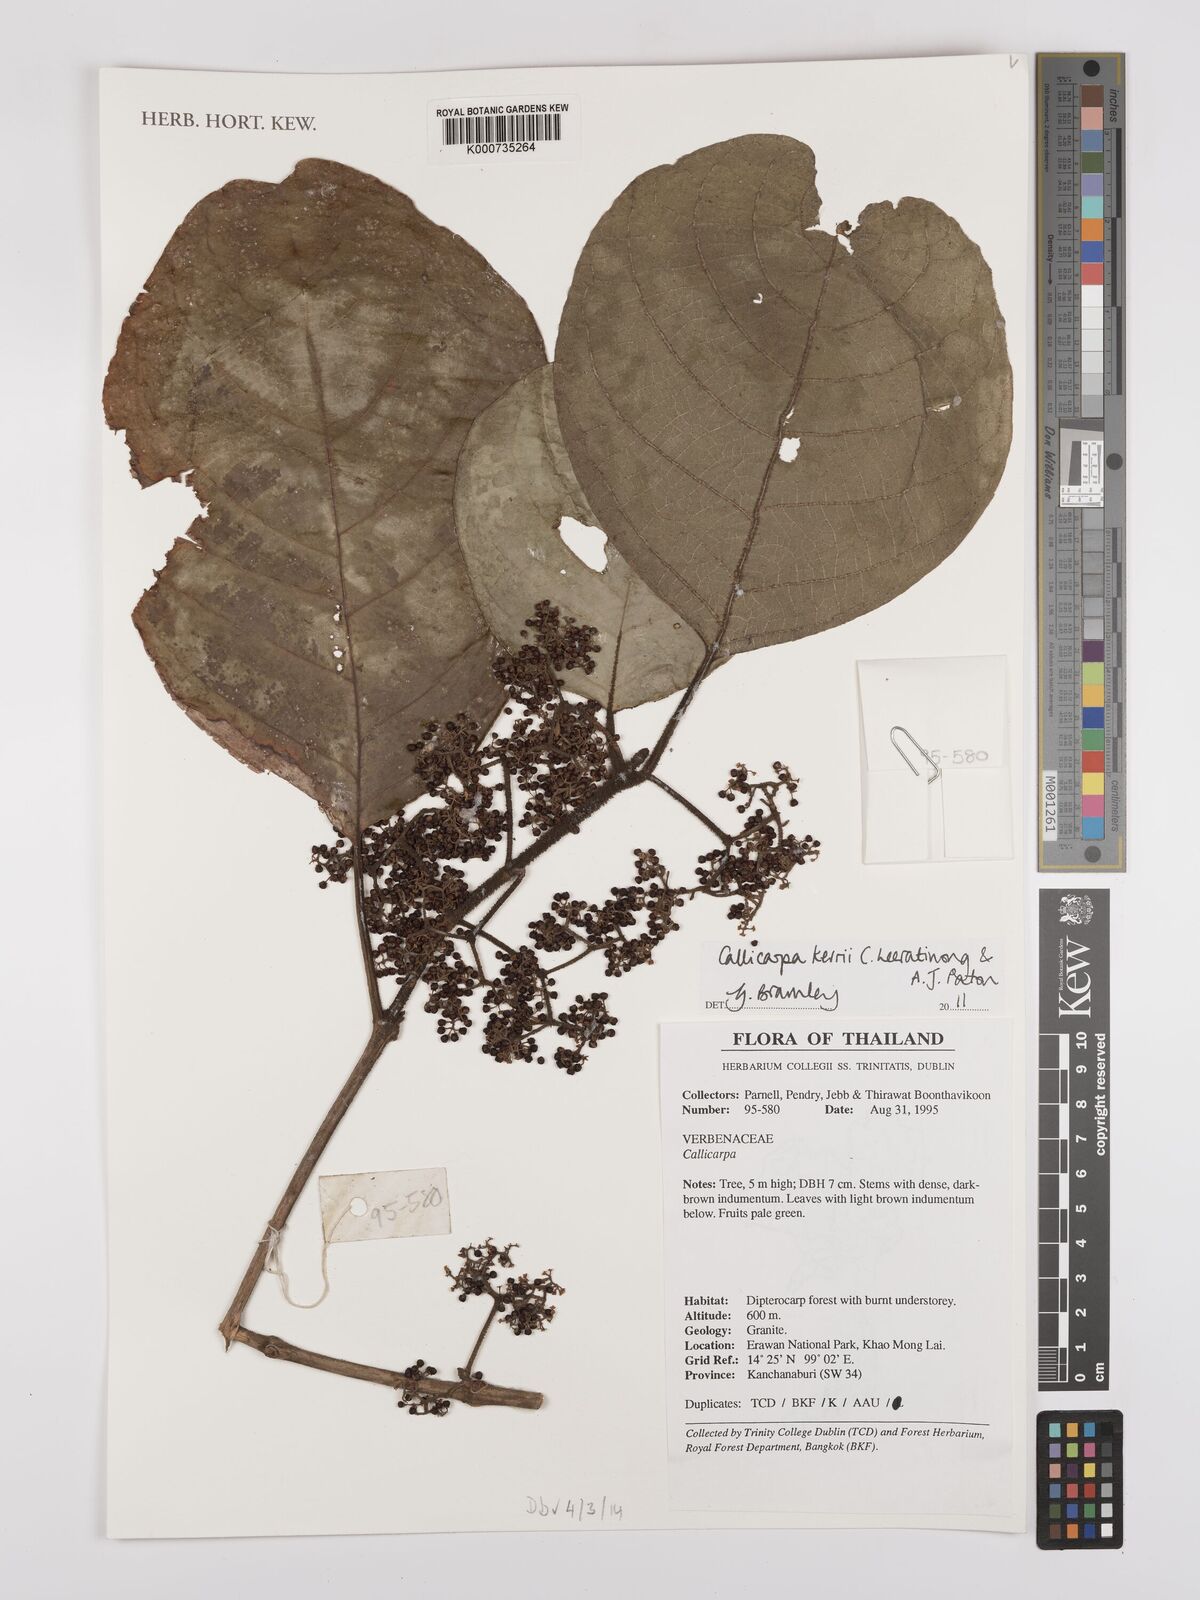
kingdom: Plantae
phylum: Tracheophyta
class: Magnoliopsida
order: Lamiales
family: Lamiaceae
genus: Callicarpa
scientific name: Callicarpa kerrii
